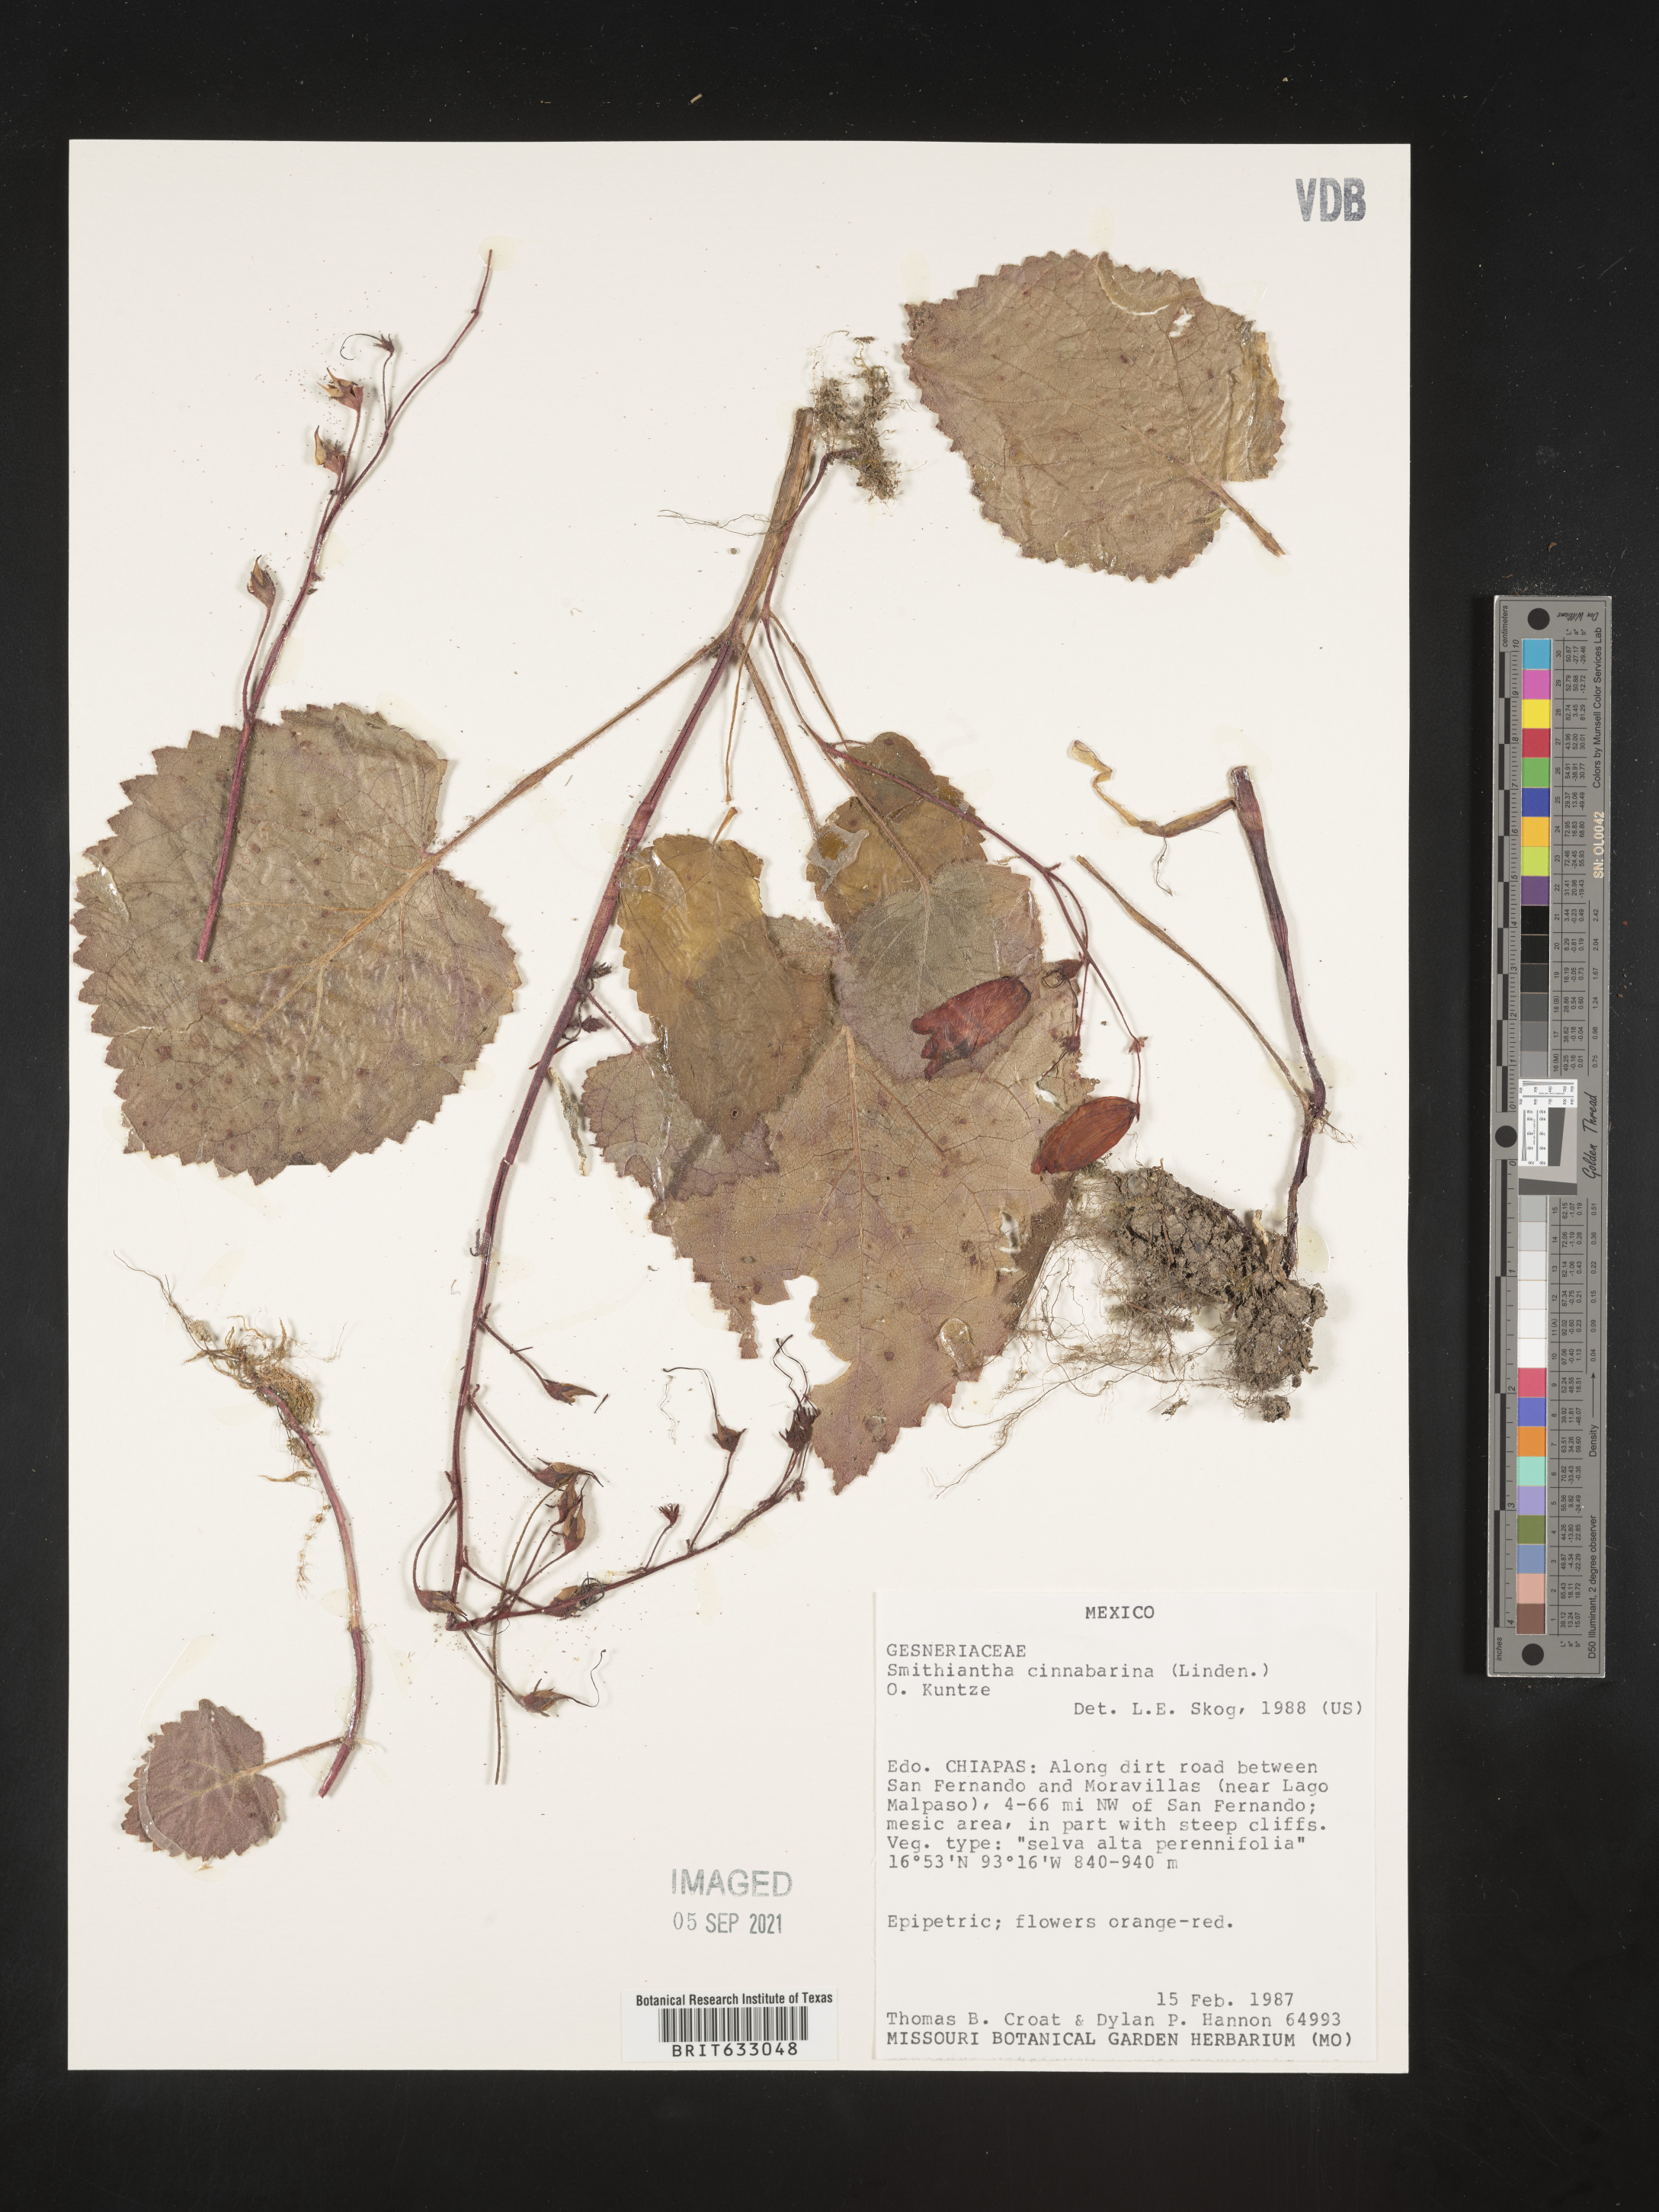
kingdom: Plantae
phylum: Tracheophyta
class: Magnoliopsida
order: Lamiales
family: Gesneriaceae
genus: Smithiantha
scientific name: Smithiantha
